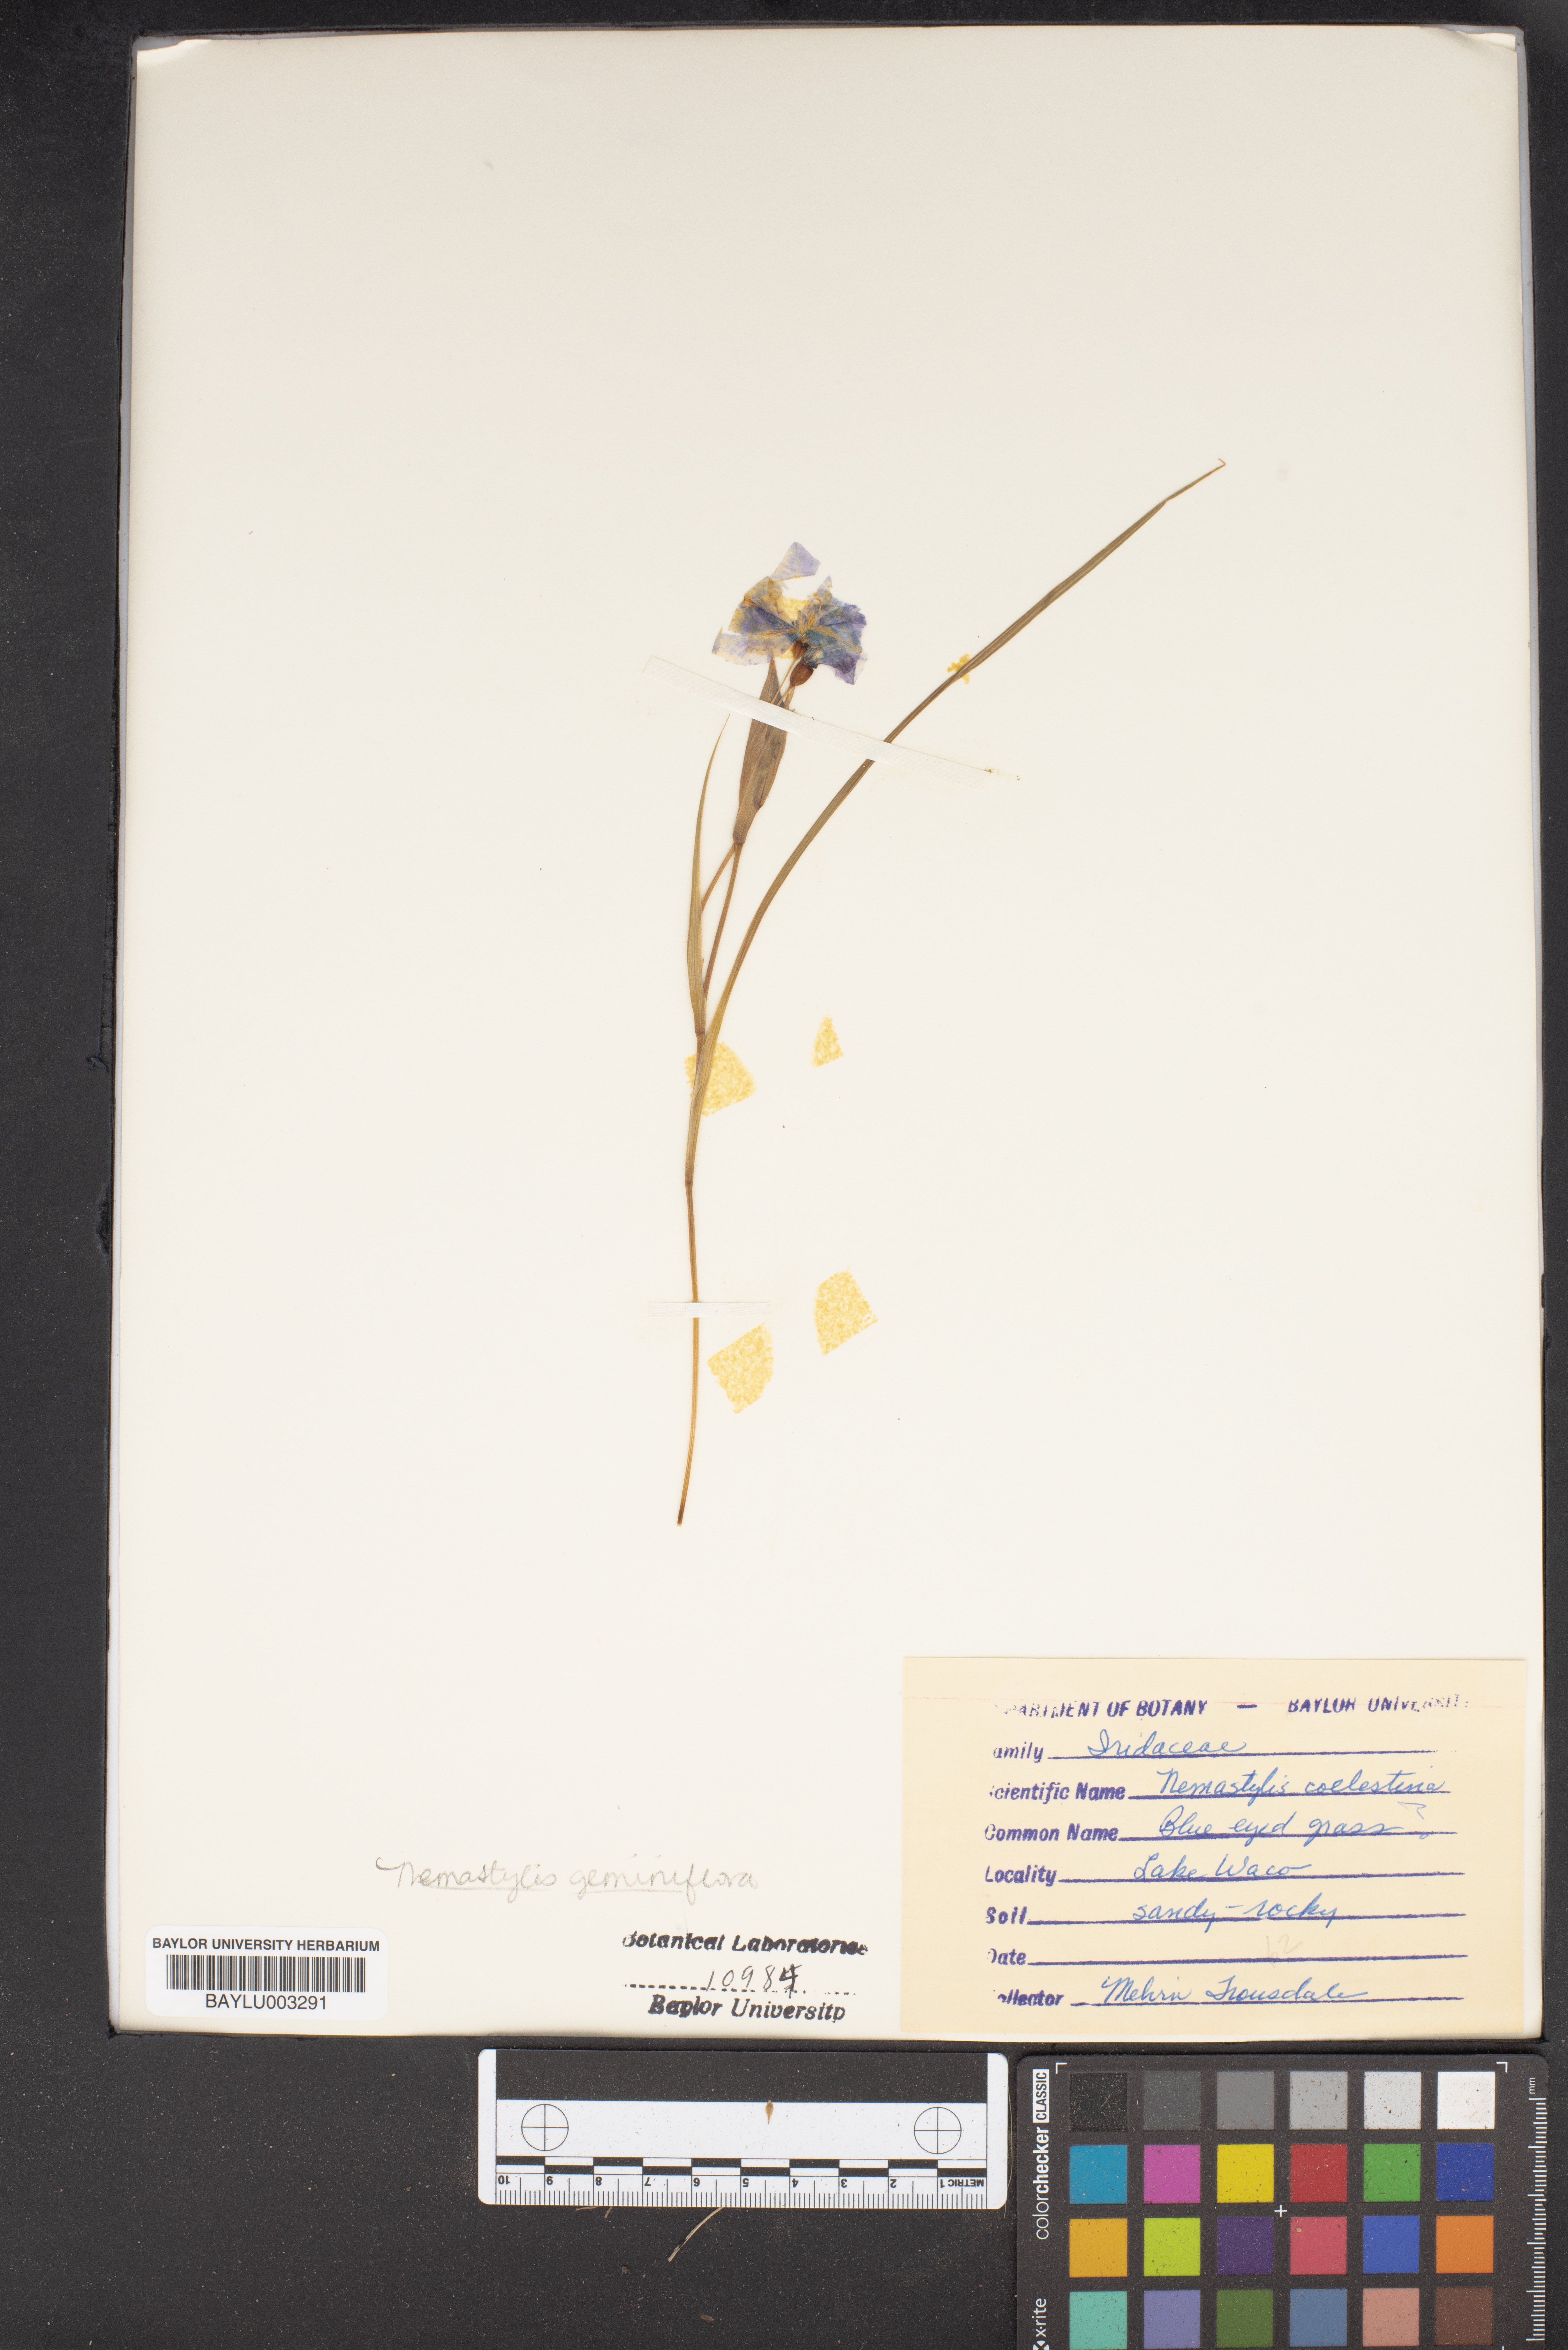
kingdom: Plantae
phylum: Tracheophyta
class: Liliopsida
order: Asparagales
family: Iridaceae
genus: Nemastylis
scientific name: Nemastylis geminiflora
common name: Prairie celestial
